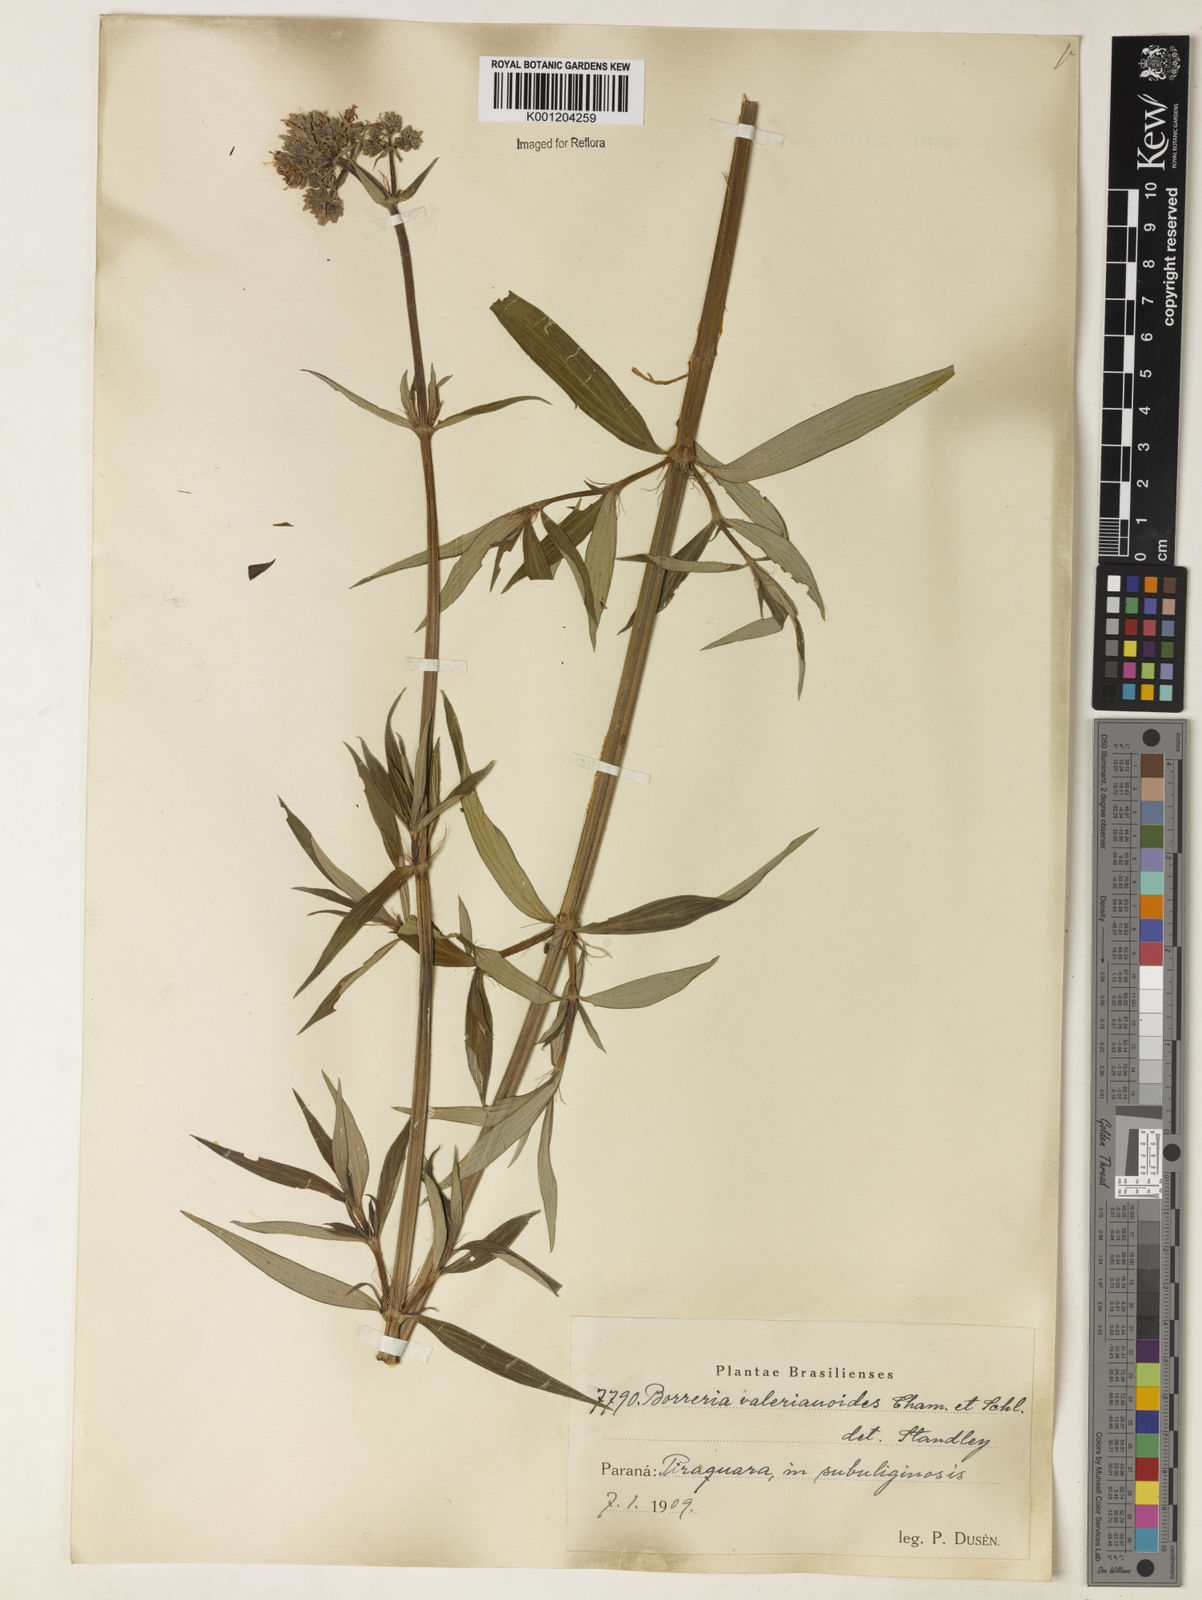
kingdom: Plantae
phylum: Tracheophyta
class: Magnoliopsida
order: Gentianales
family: Rubiaceae
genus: Galianthe
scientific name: Galianthe valerianoides
